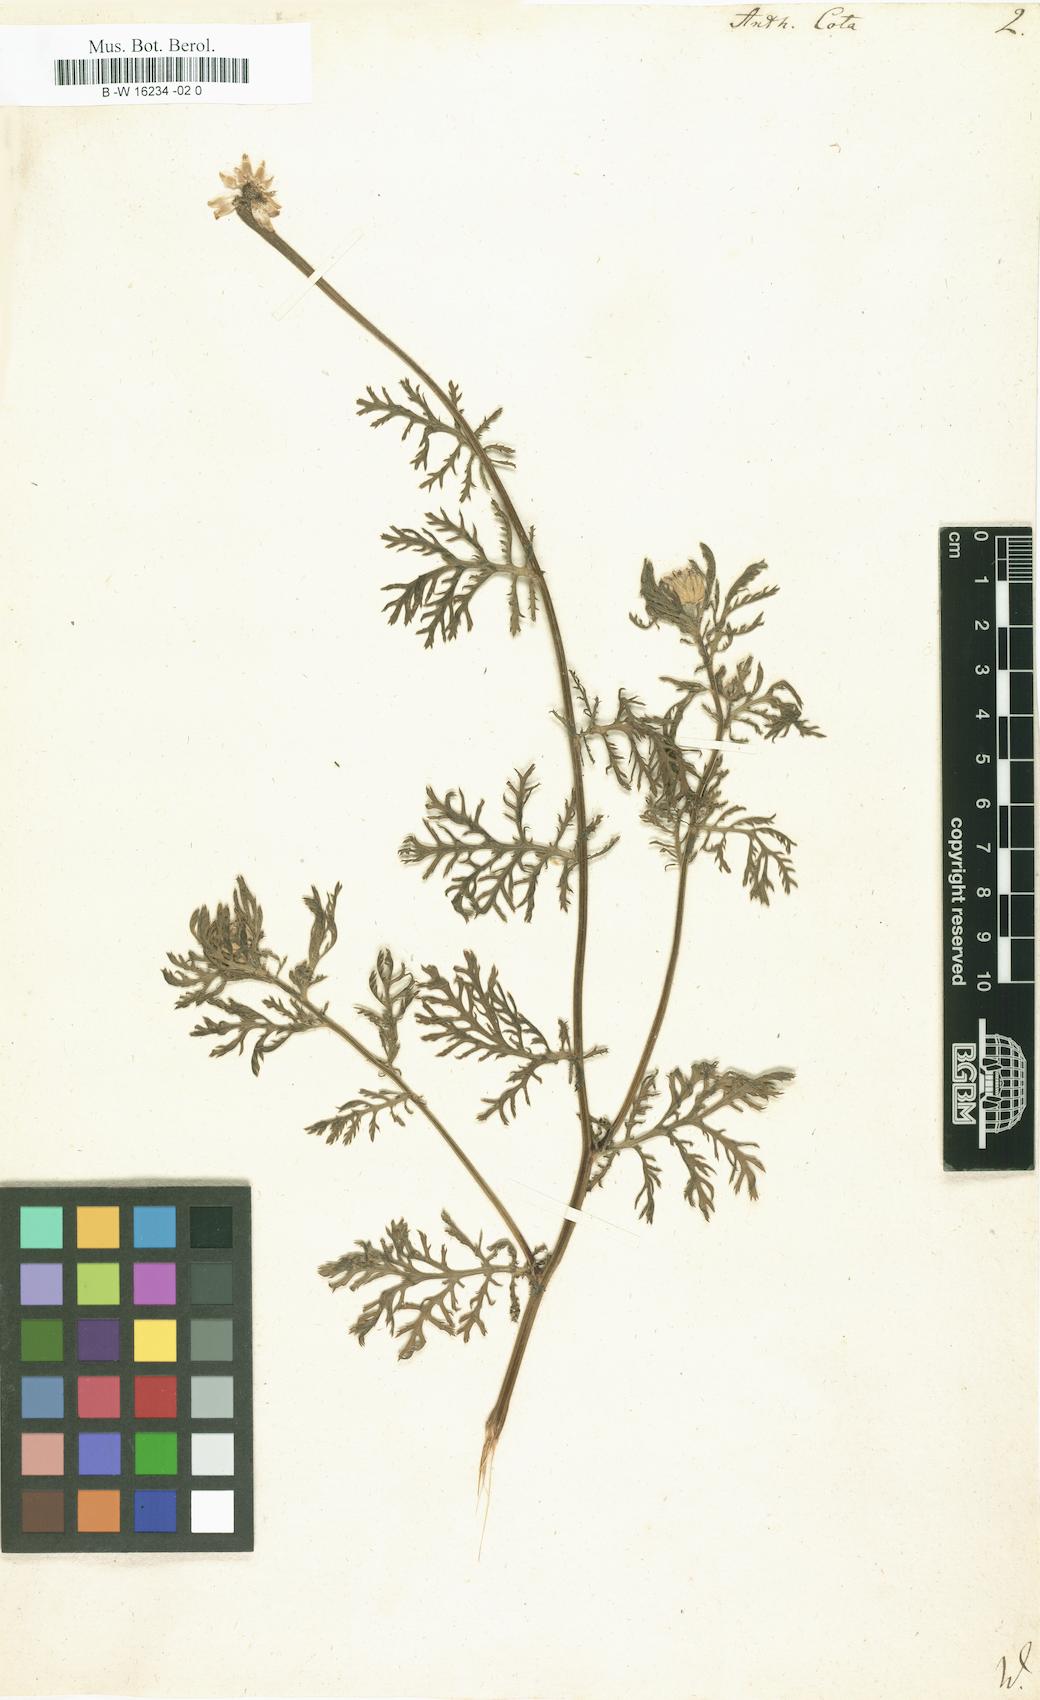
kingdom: Plantae
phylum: Tracheophyta
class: Magnoliopsida
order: Asterales
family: Asteraceae
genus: Cota
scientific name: Cota altissima
